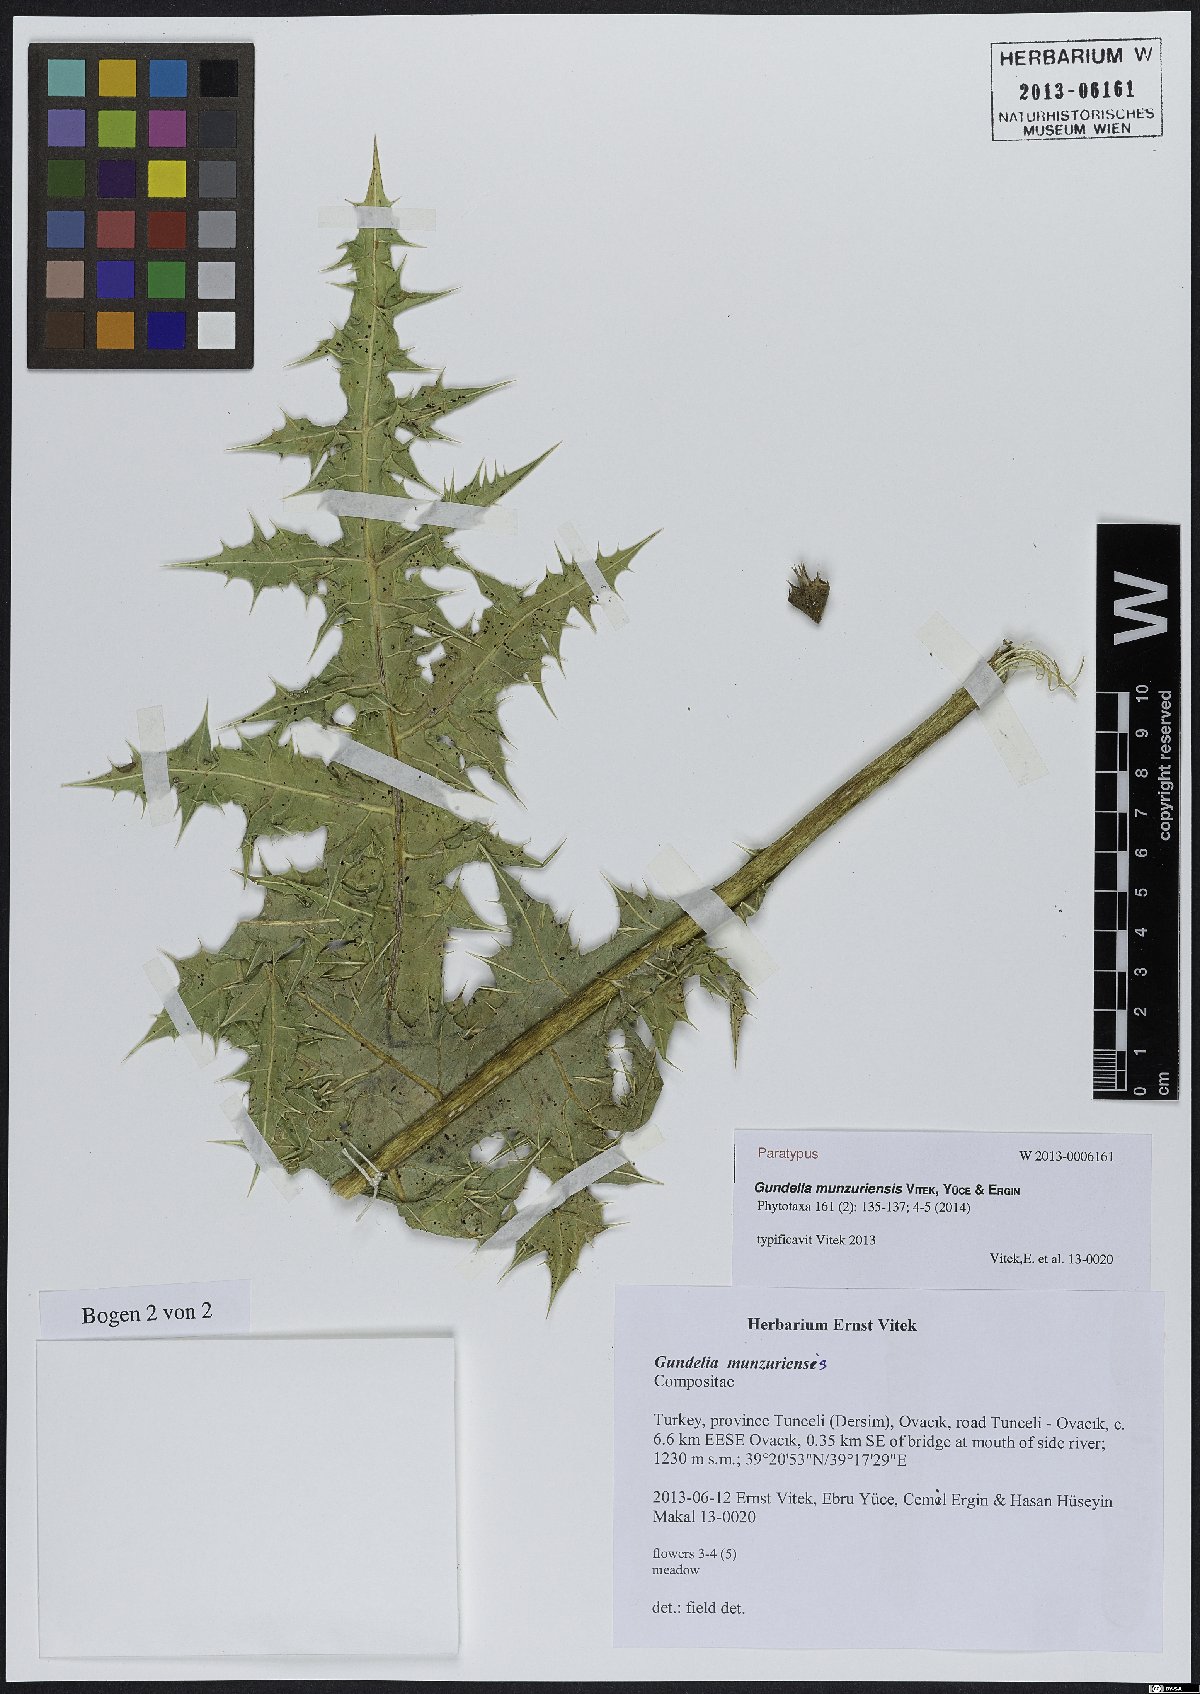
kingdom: Plantae
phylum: Tracheophyta
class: Magnoliopsida
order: Asterales
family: Asteraceae
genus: Gundelia
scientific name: Gundelia munzuriensis
